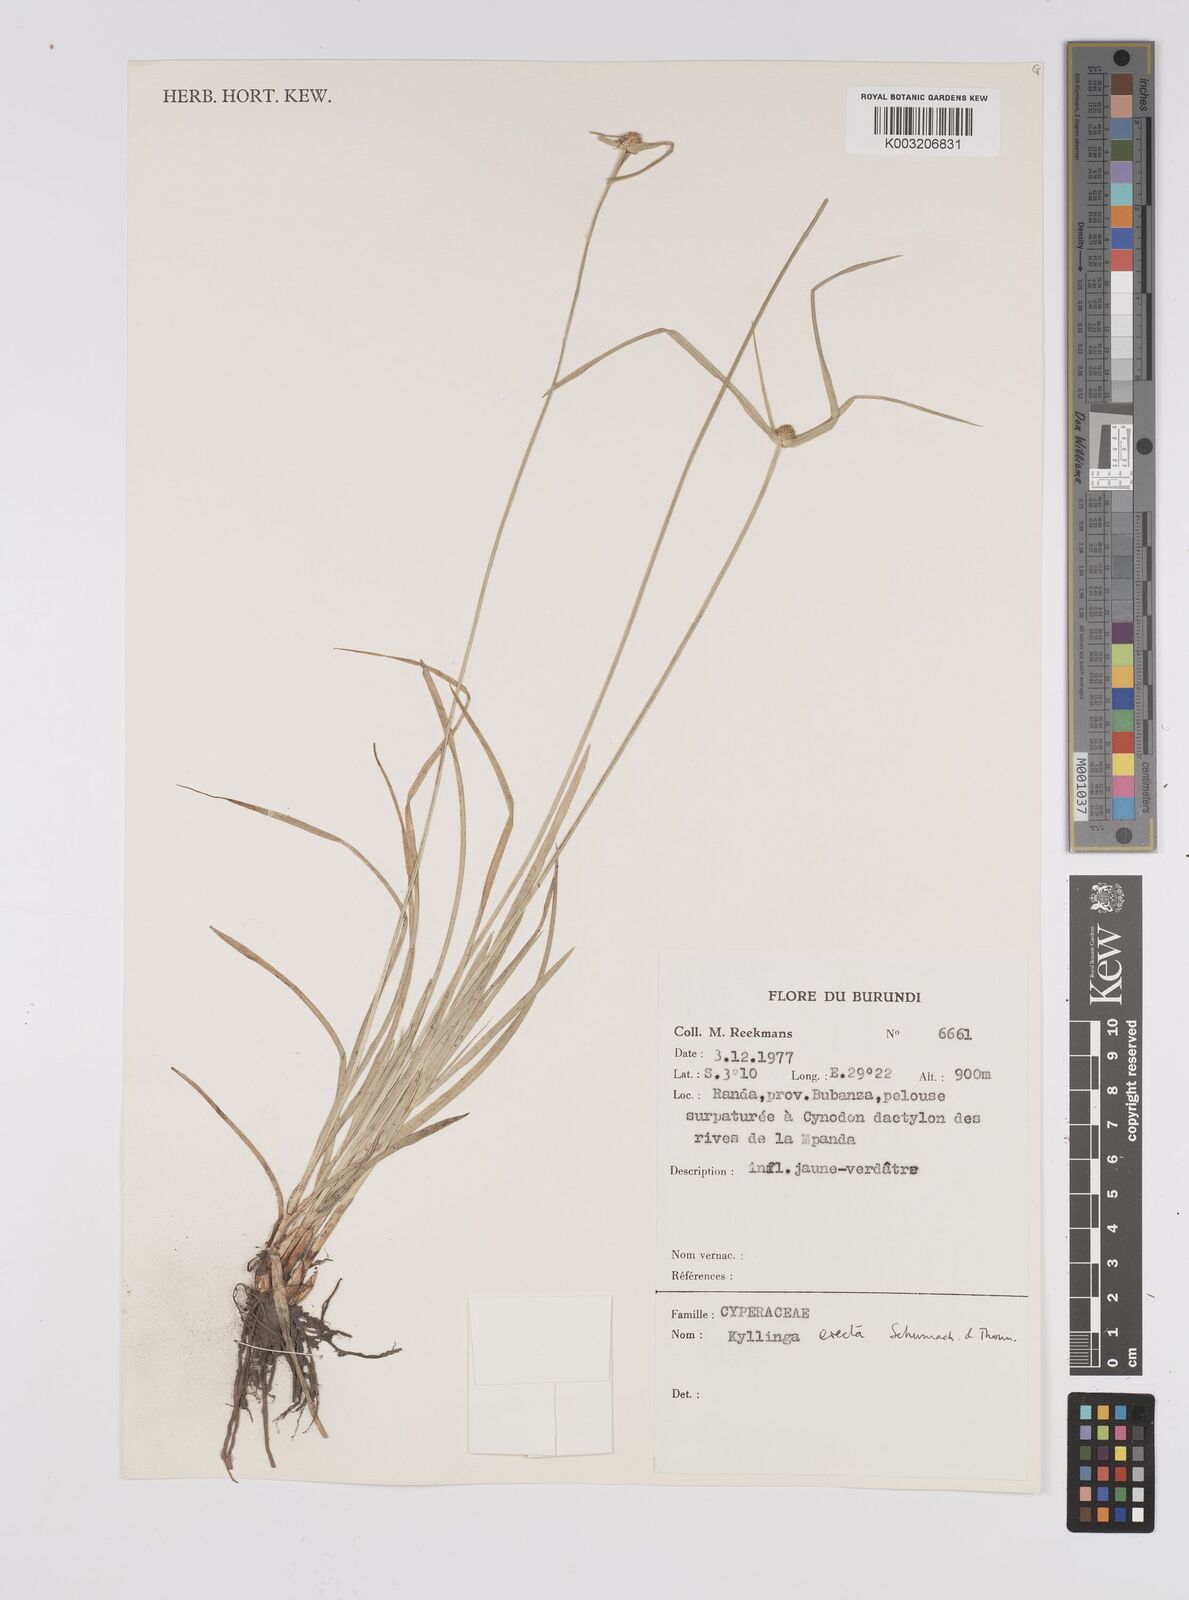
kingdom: Plantae
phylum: Tracheophyta
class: Liliopsida
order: Poales
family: Cyperaceae
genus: Cyperus
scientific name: Cyperus erectus
